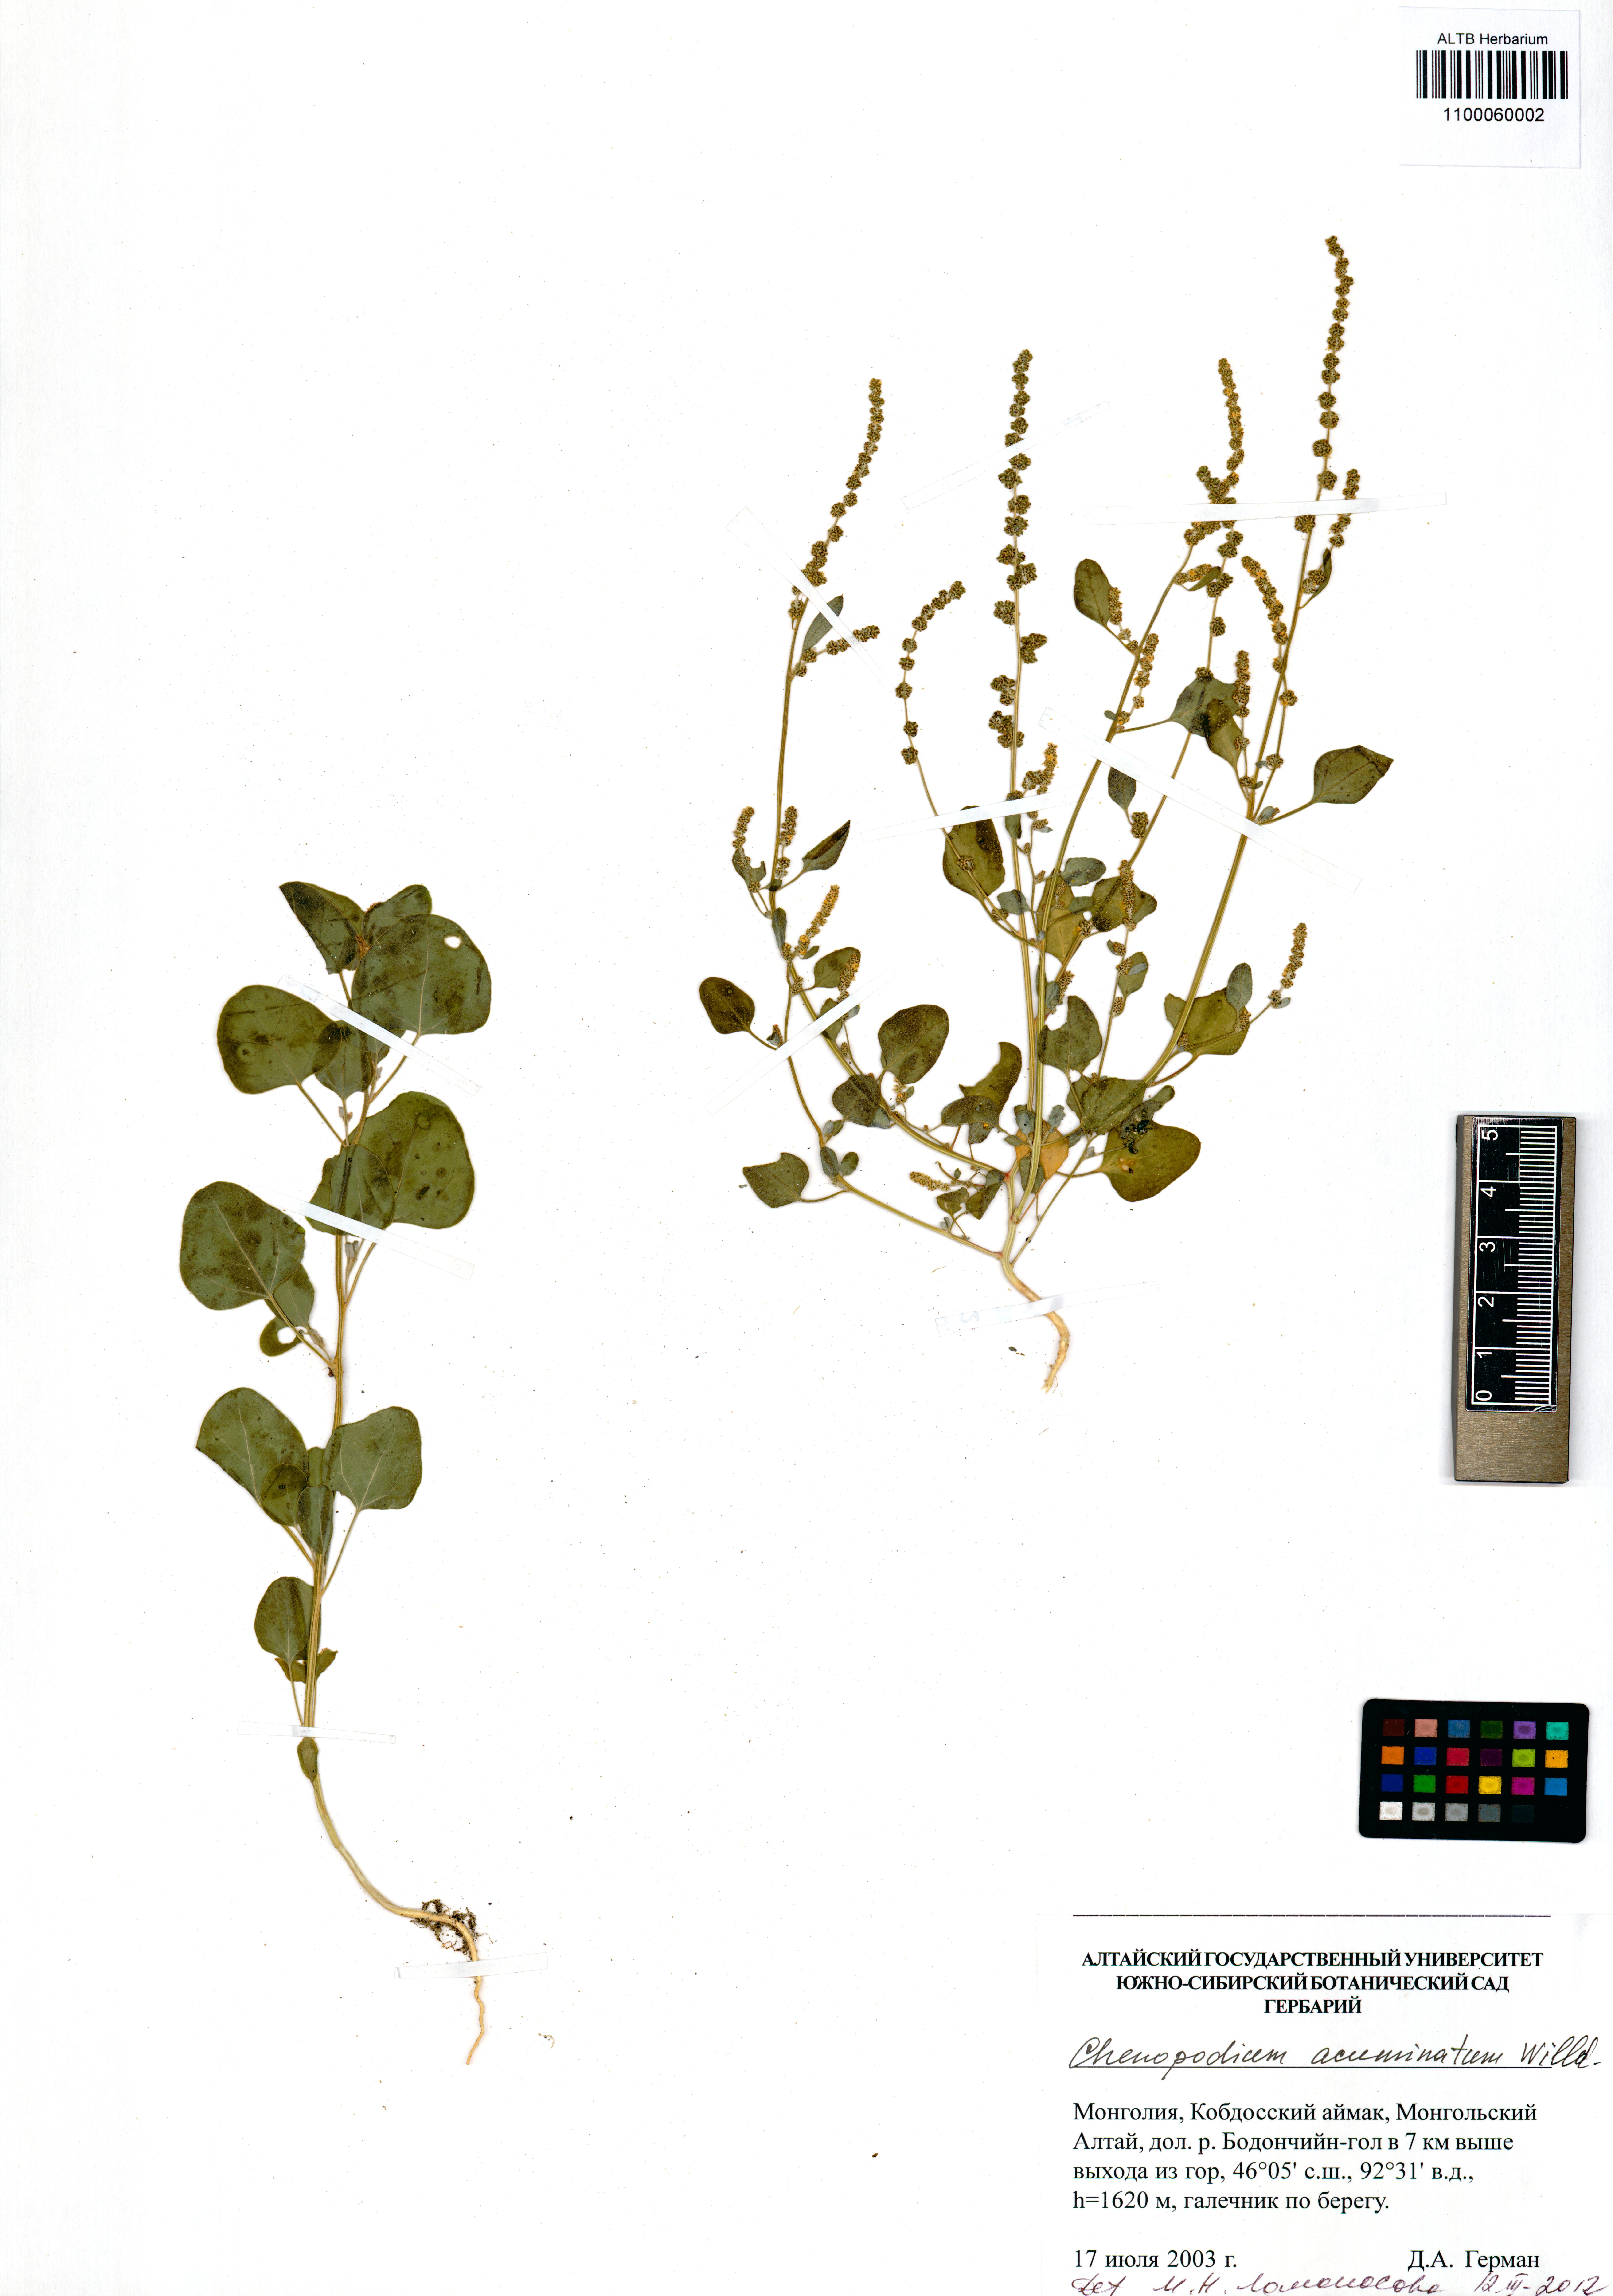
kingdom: Plantae
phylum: Tracheophyta
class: Magnoliopsida
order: Caryophyllales
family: Amaranthaceae
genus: Chenopodium
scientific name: Chenopodium acuminatum
